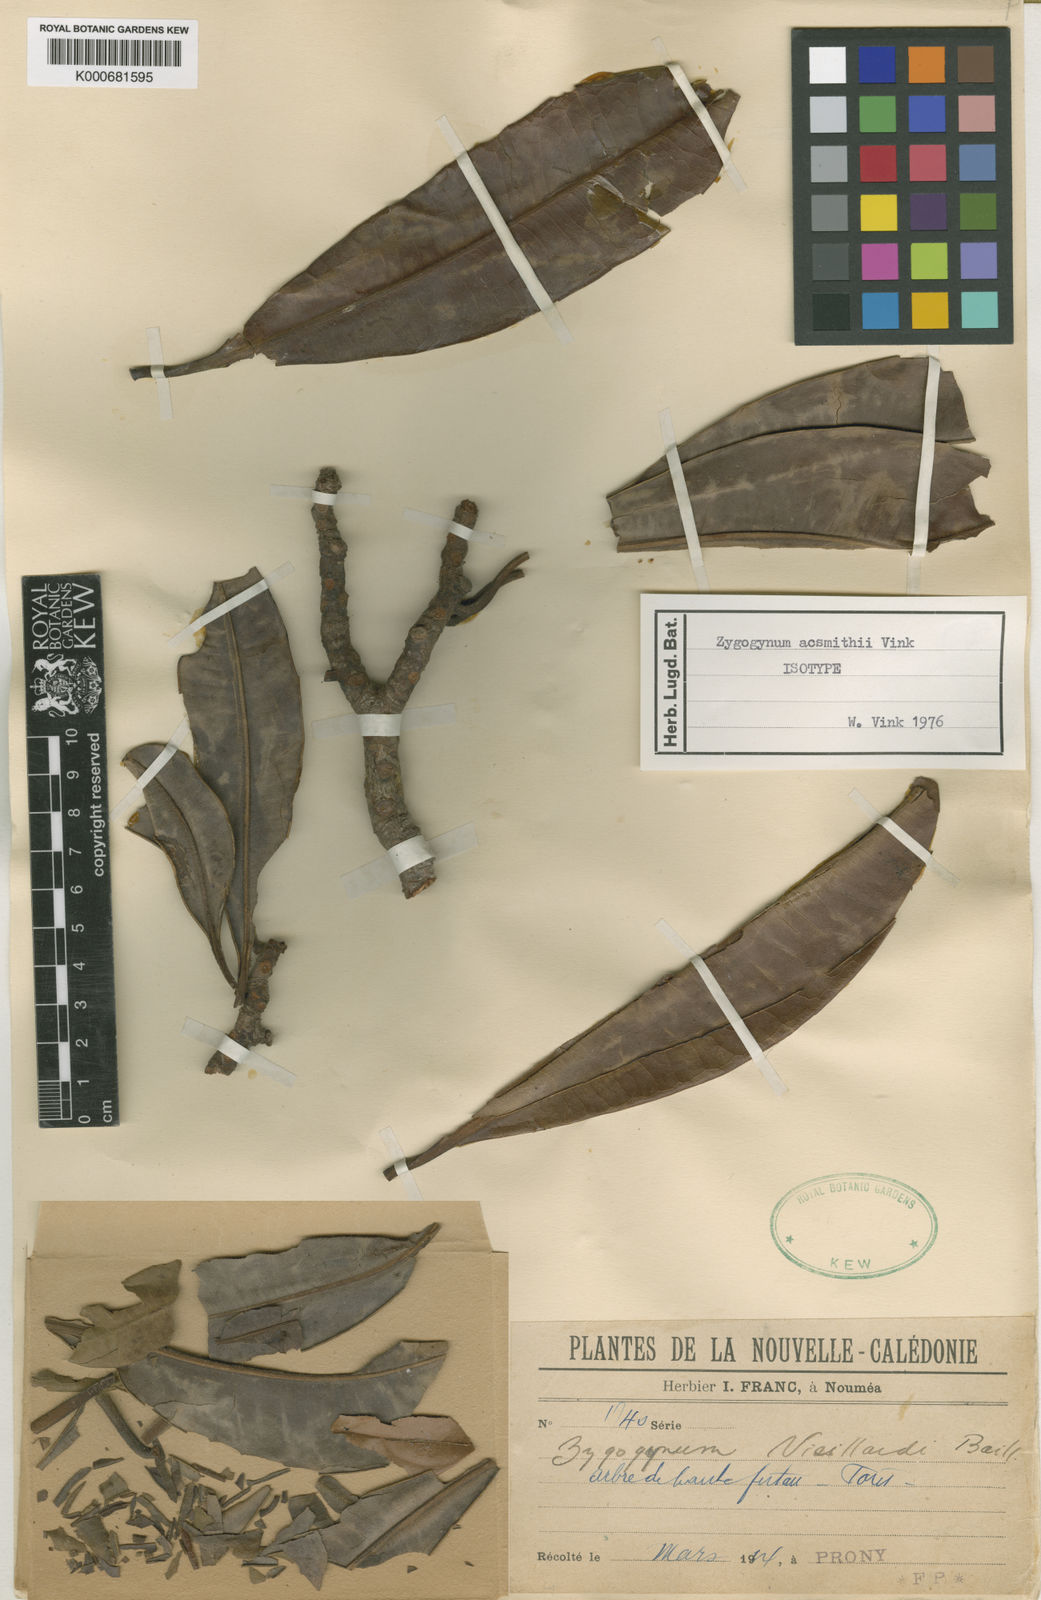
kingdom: Plantae
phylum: Tracheophyta
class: Magnoliopsida
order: Canellales
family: Winteraceae
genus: Zygogynum
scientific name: Zygogynum acsmithii
